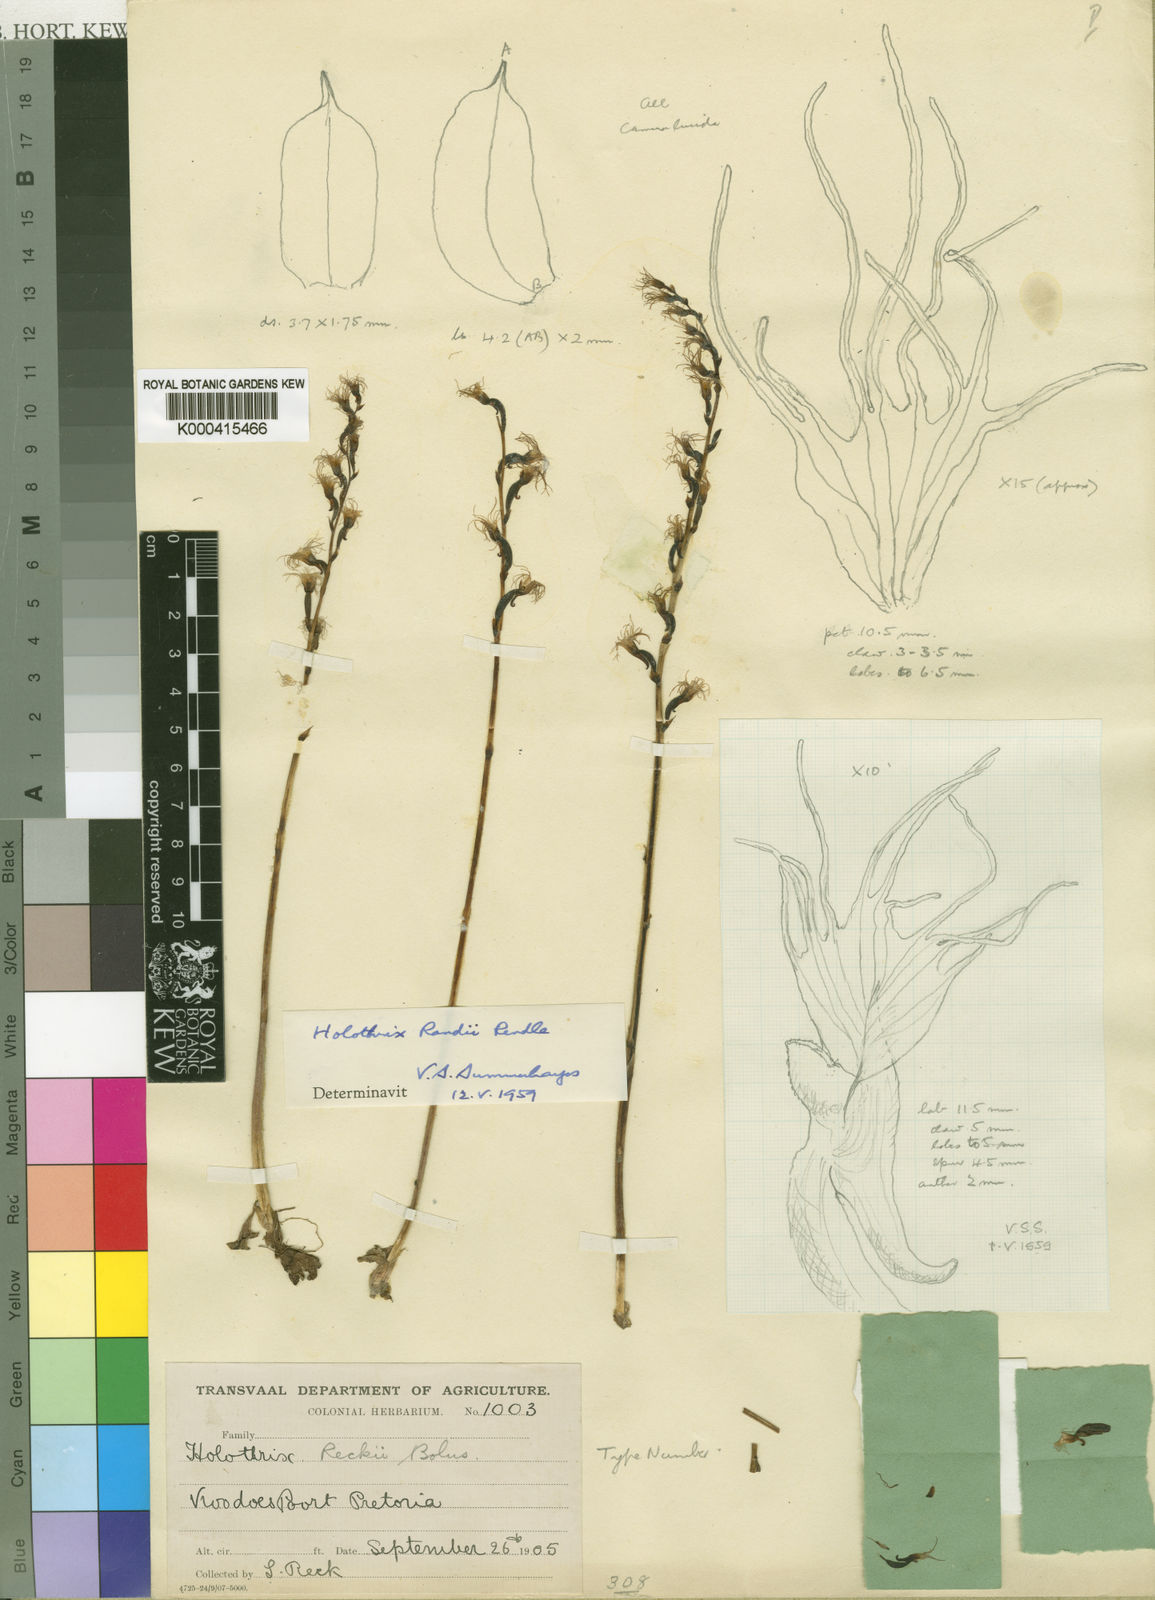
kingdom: Plantae
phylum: Tracheophyta
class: Liliopsida
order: Asparagales
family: Orchidaceae
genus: Holothrix
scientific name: Holothrix randii
